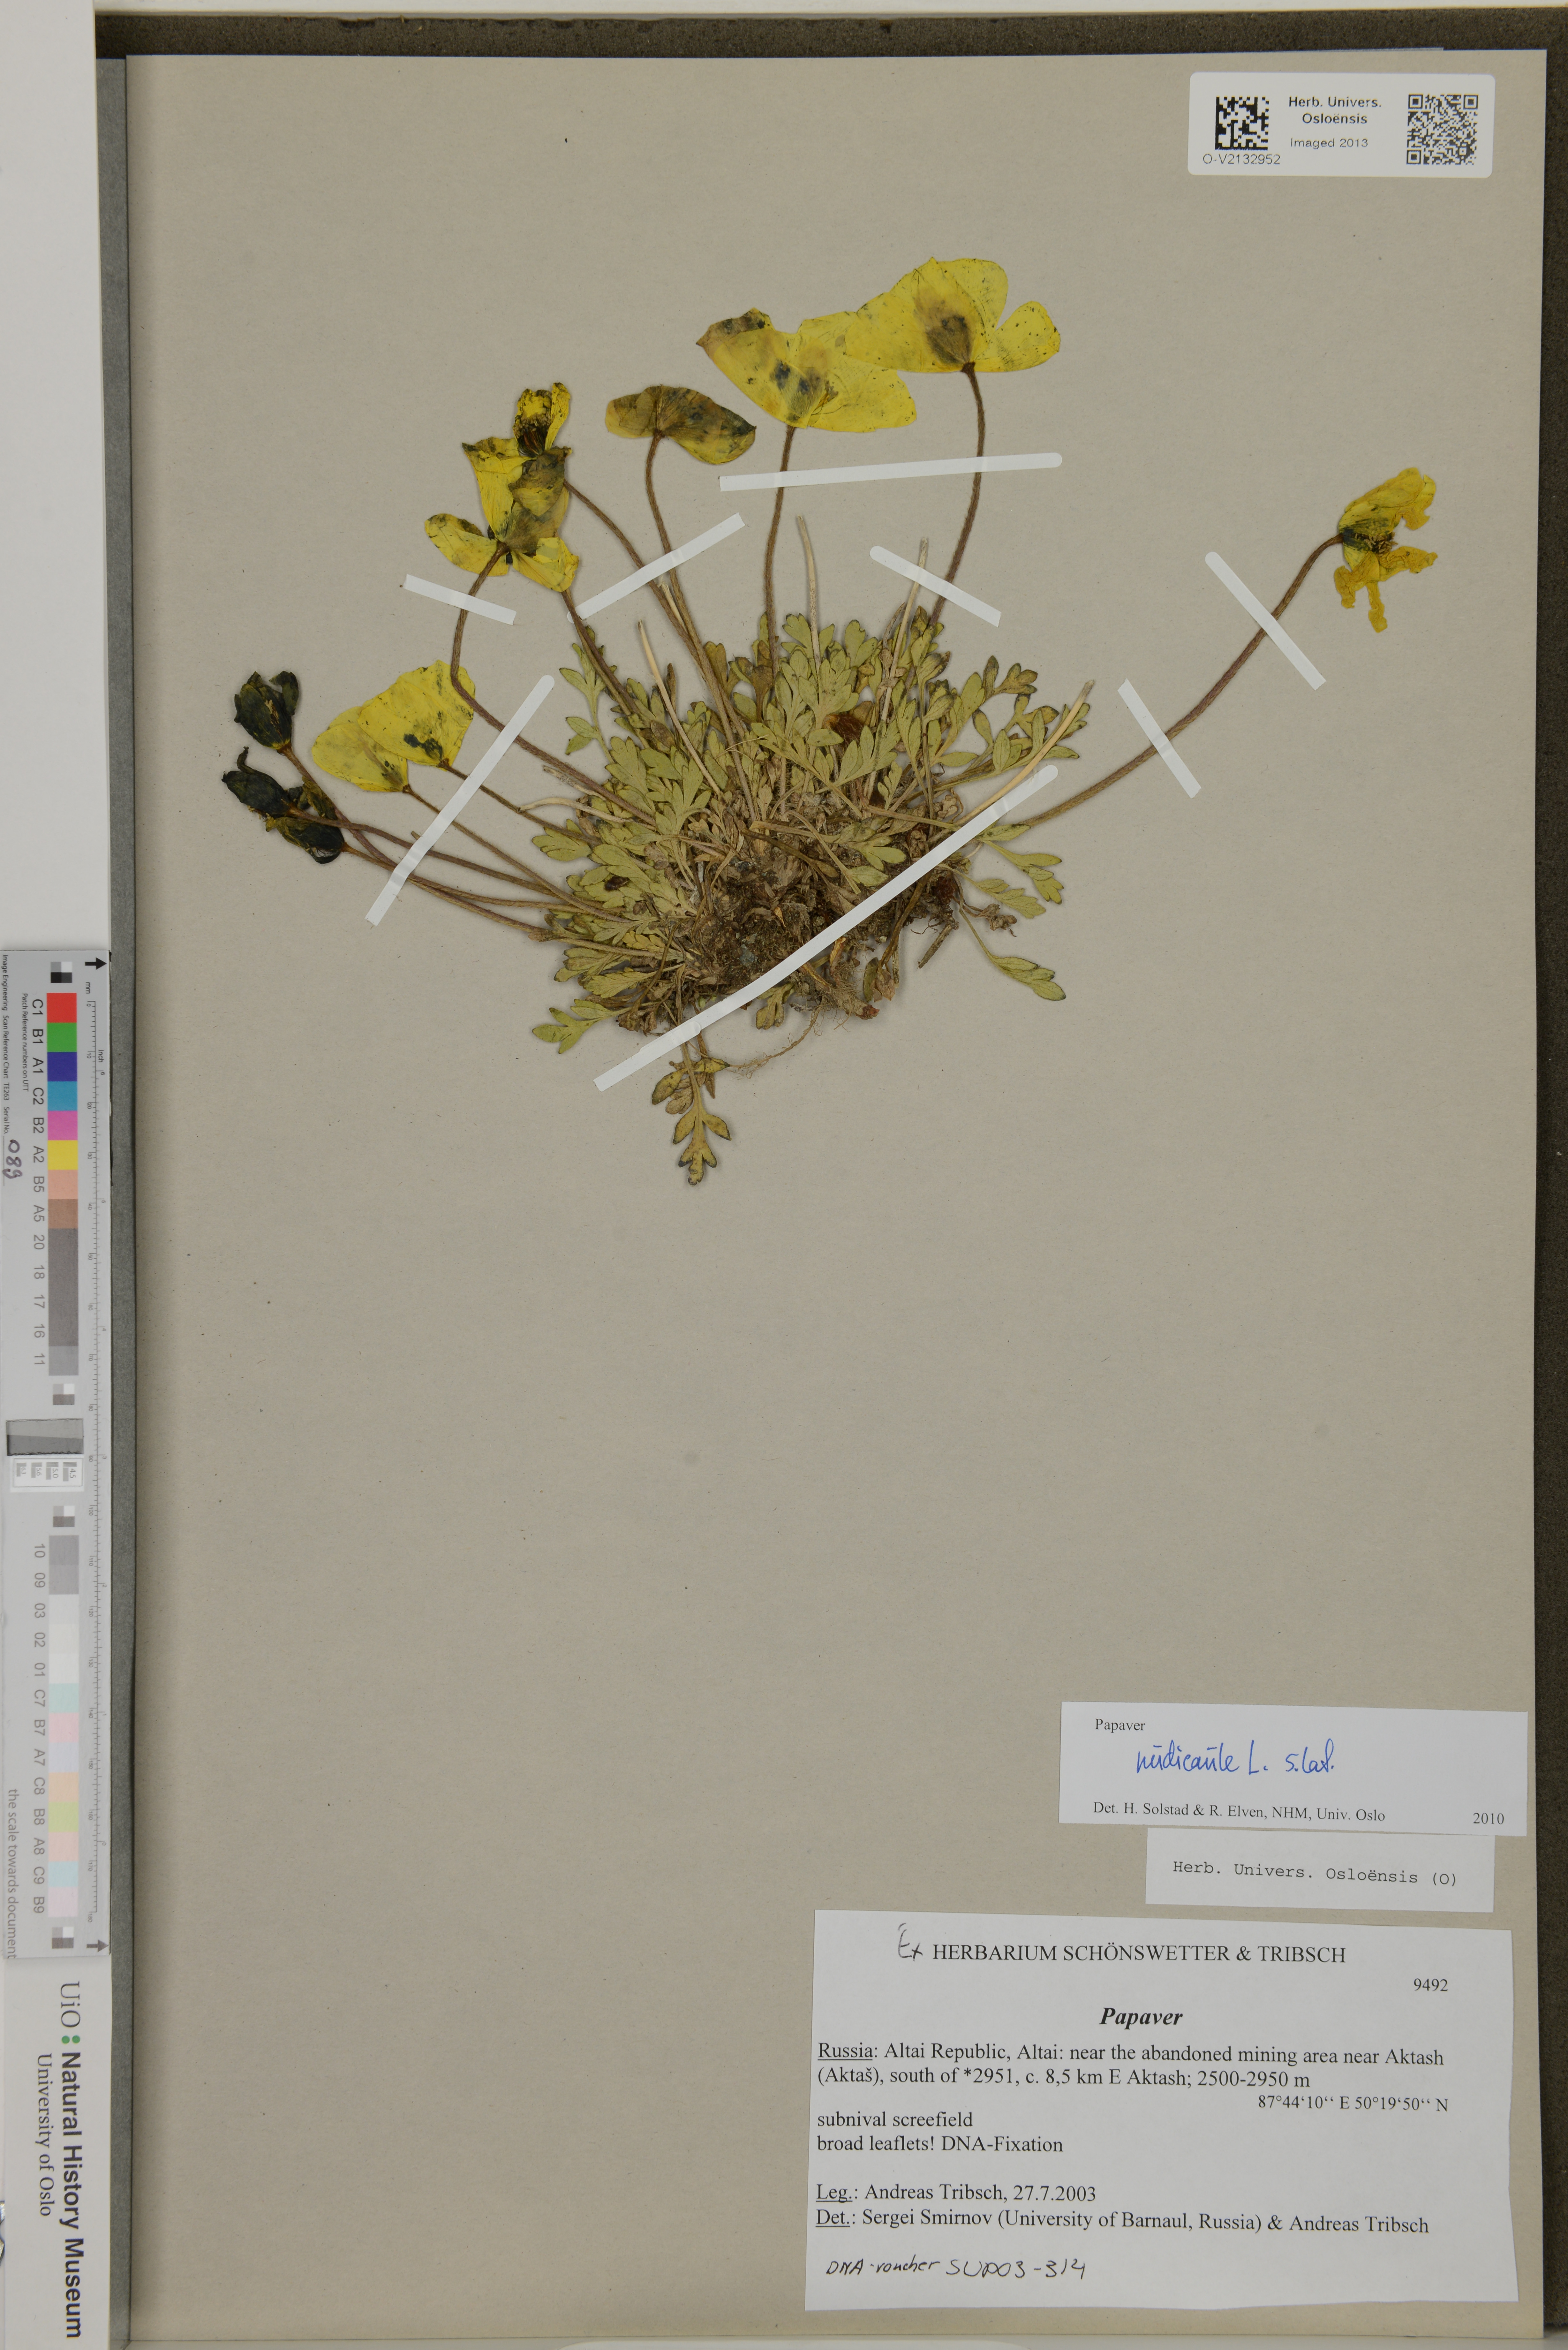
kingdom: Plantae
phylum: Tracheophyta
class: Magnoliopsida
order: Ranunculales
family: Papaveraceae
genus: Papaver
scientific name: Papaver nudicaule
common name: Arctic poppy
